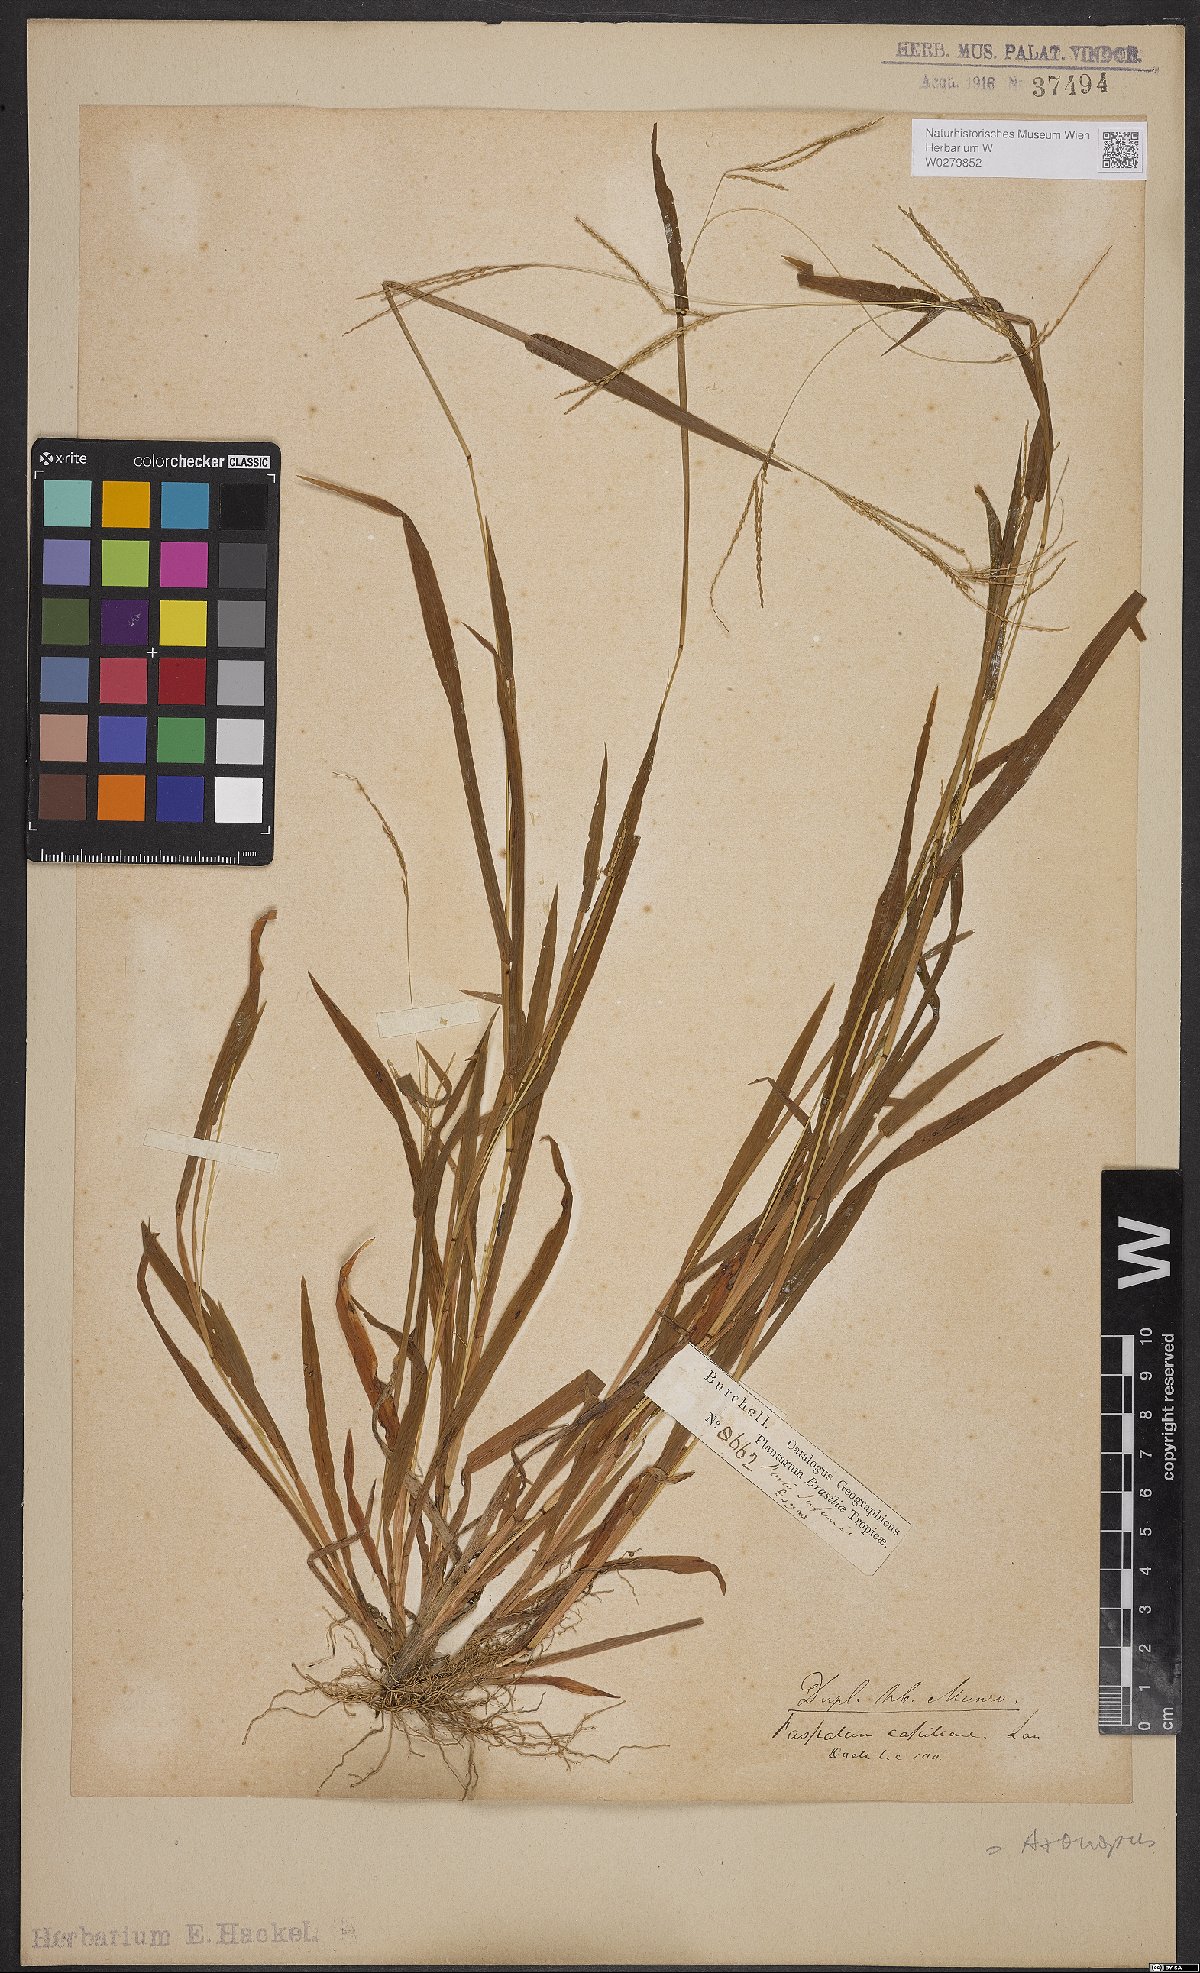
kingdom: Plantae
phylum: Tracheophyta
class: Liliopsida
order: Poales
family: Poaceae
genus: Axonopus
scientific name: Axonopus capillaris
